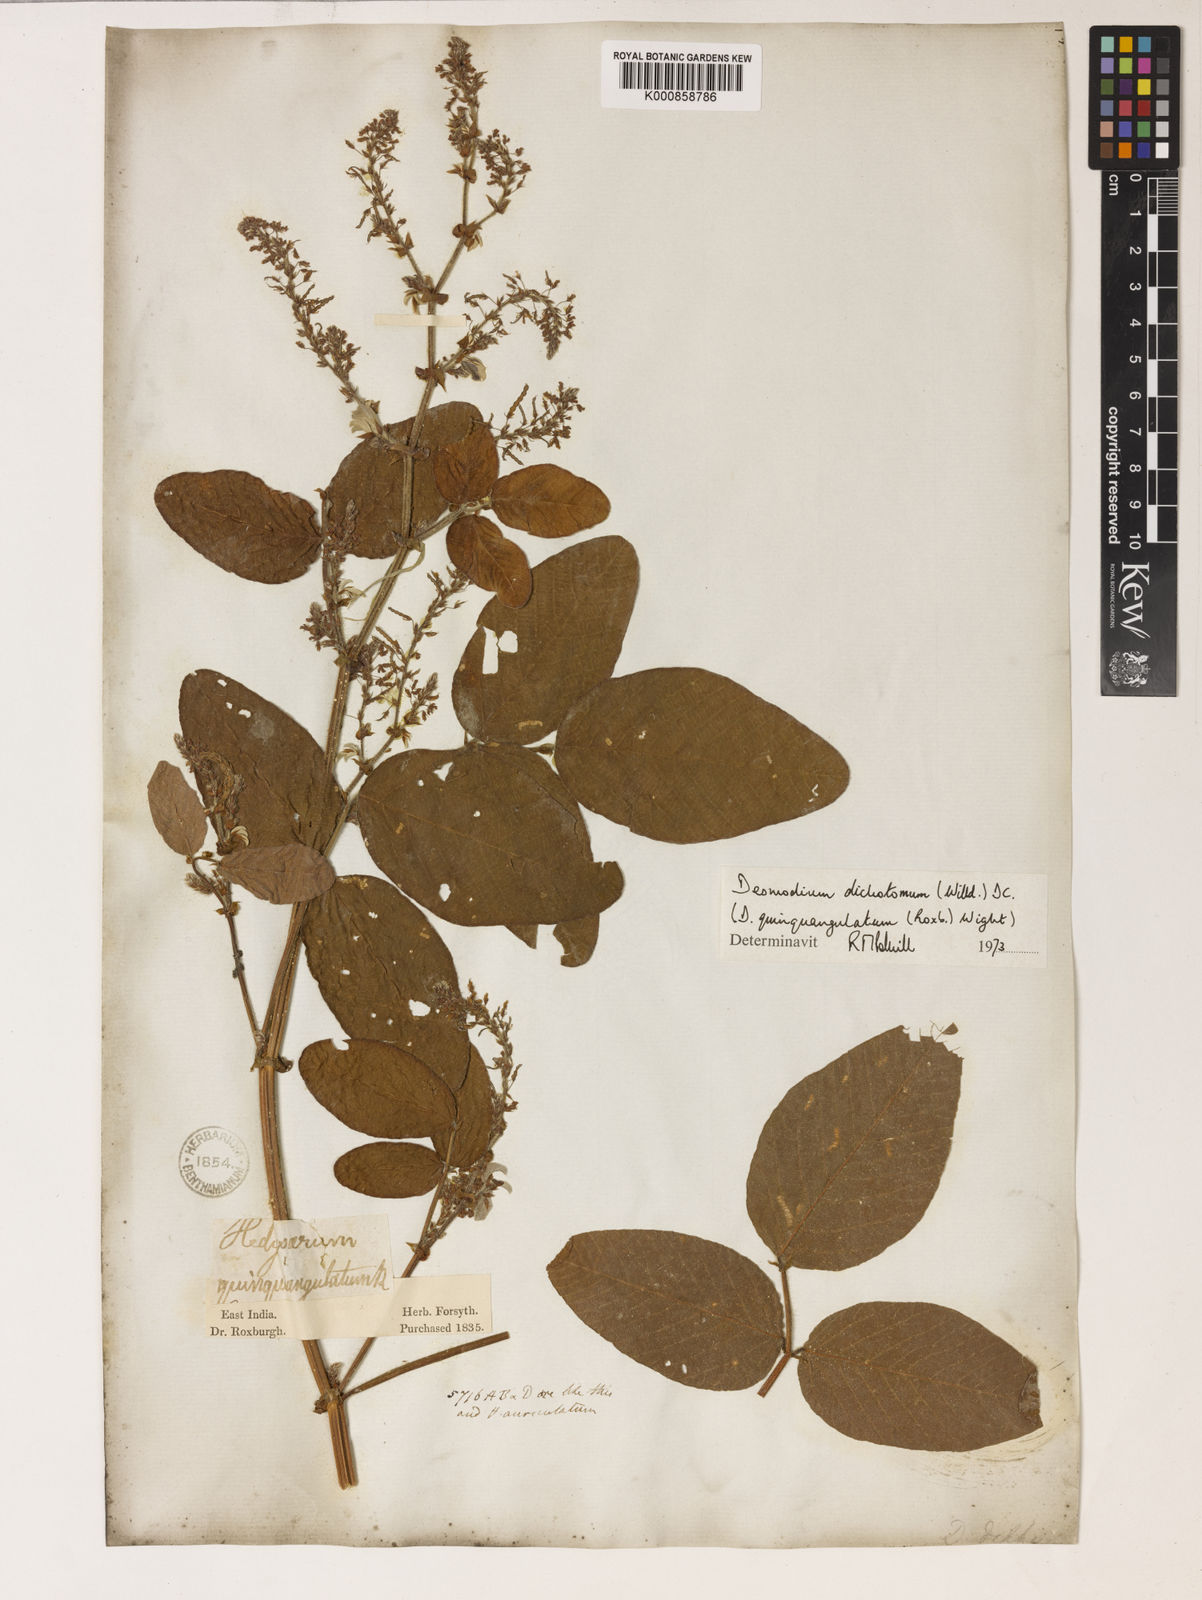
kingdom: Plantae
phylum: Tracheophyta
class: Magnoliopsida
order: Fabales
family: Fabaceae
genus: Hylodesmum
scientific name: Hylodesmum podocarpum
